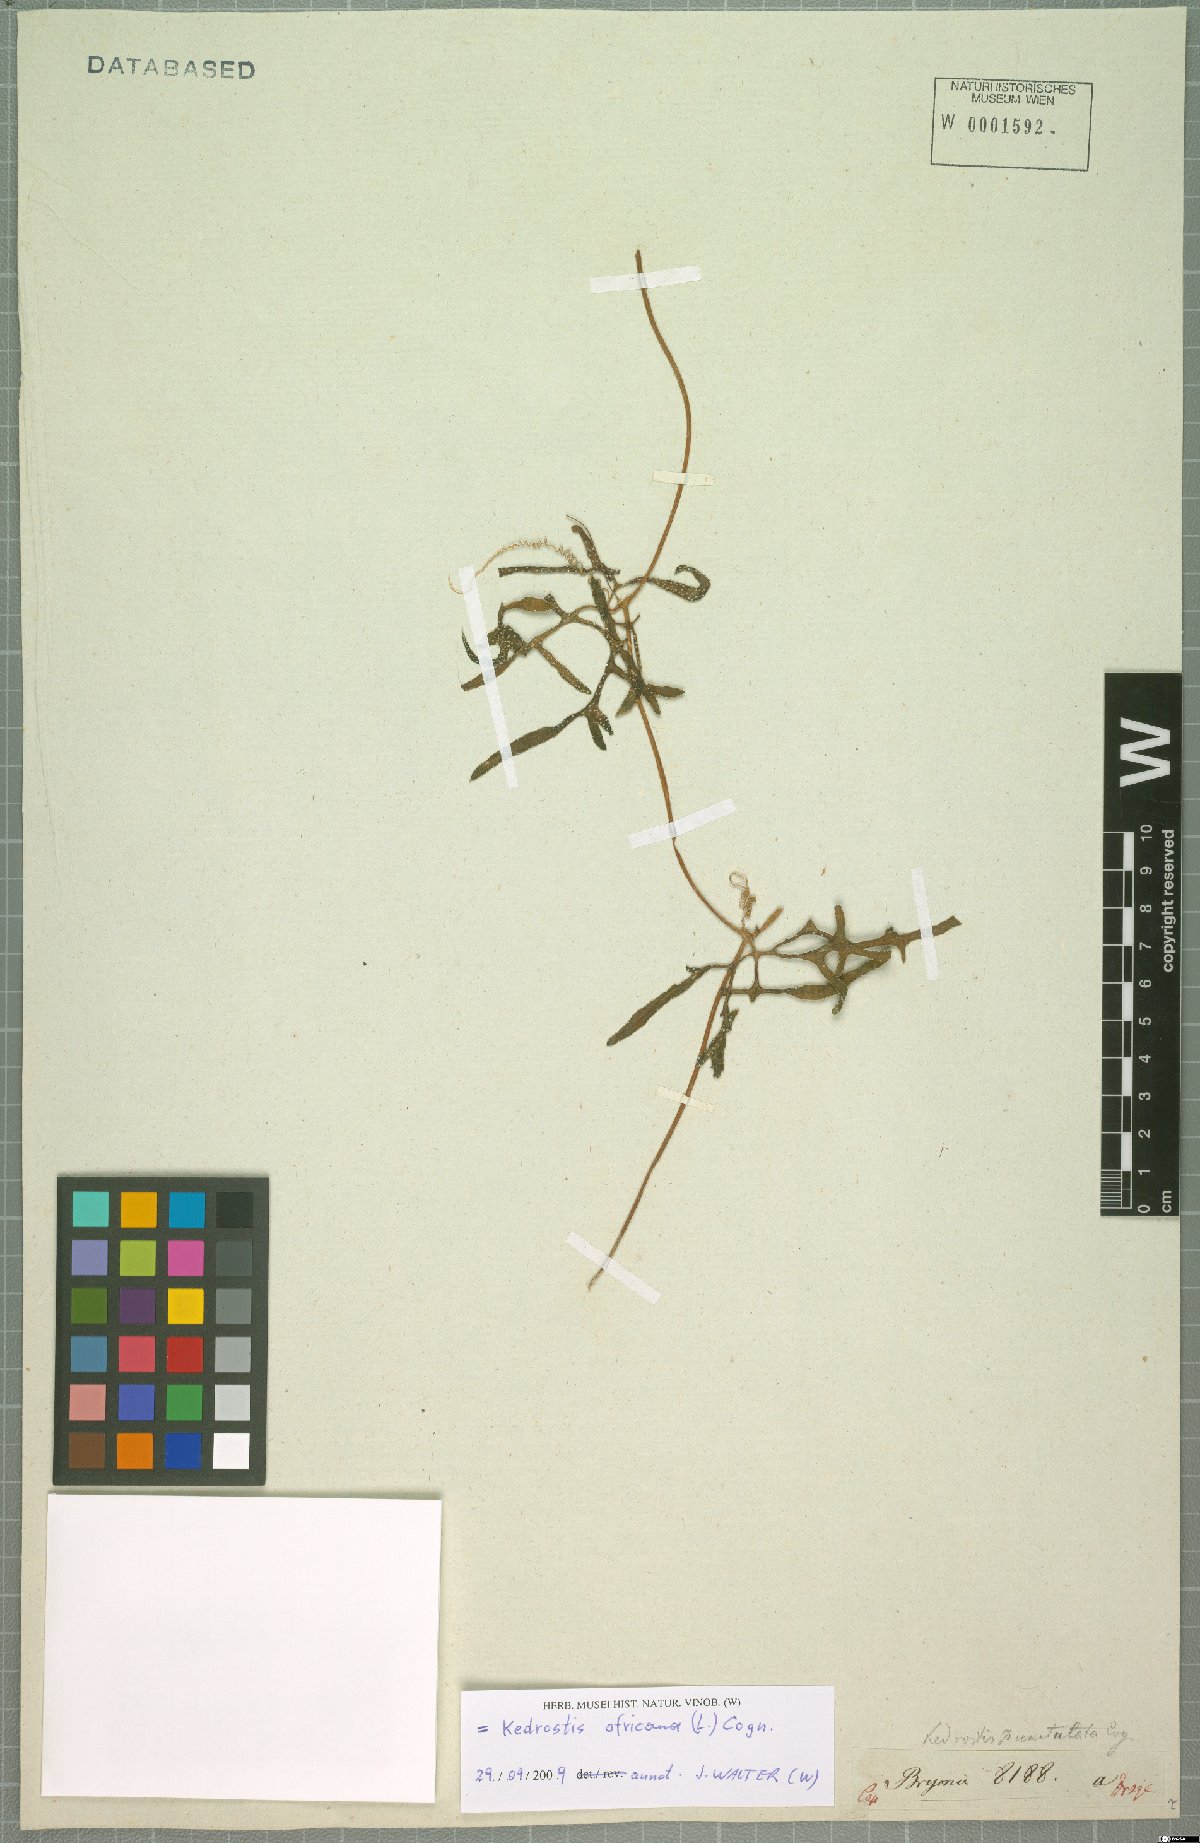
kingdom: Plantae
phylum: Tracheophyta
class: Magnoliopsida
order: Cucurbitales
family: Cucurbitaceae
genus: Kedrostis
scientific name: Kedrostis africana
